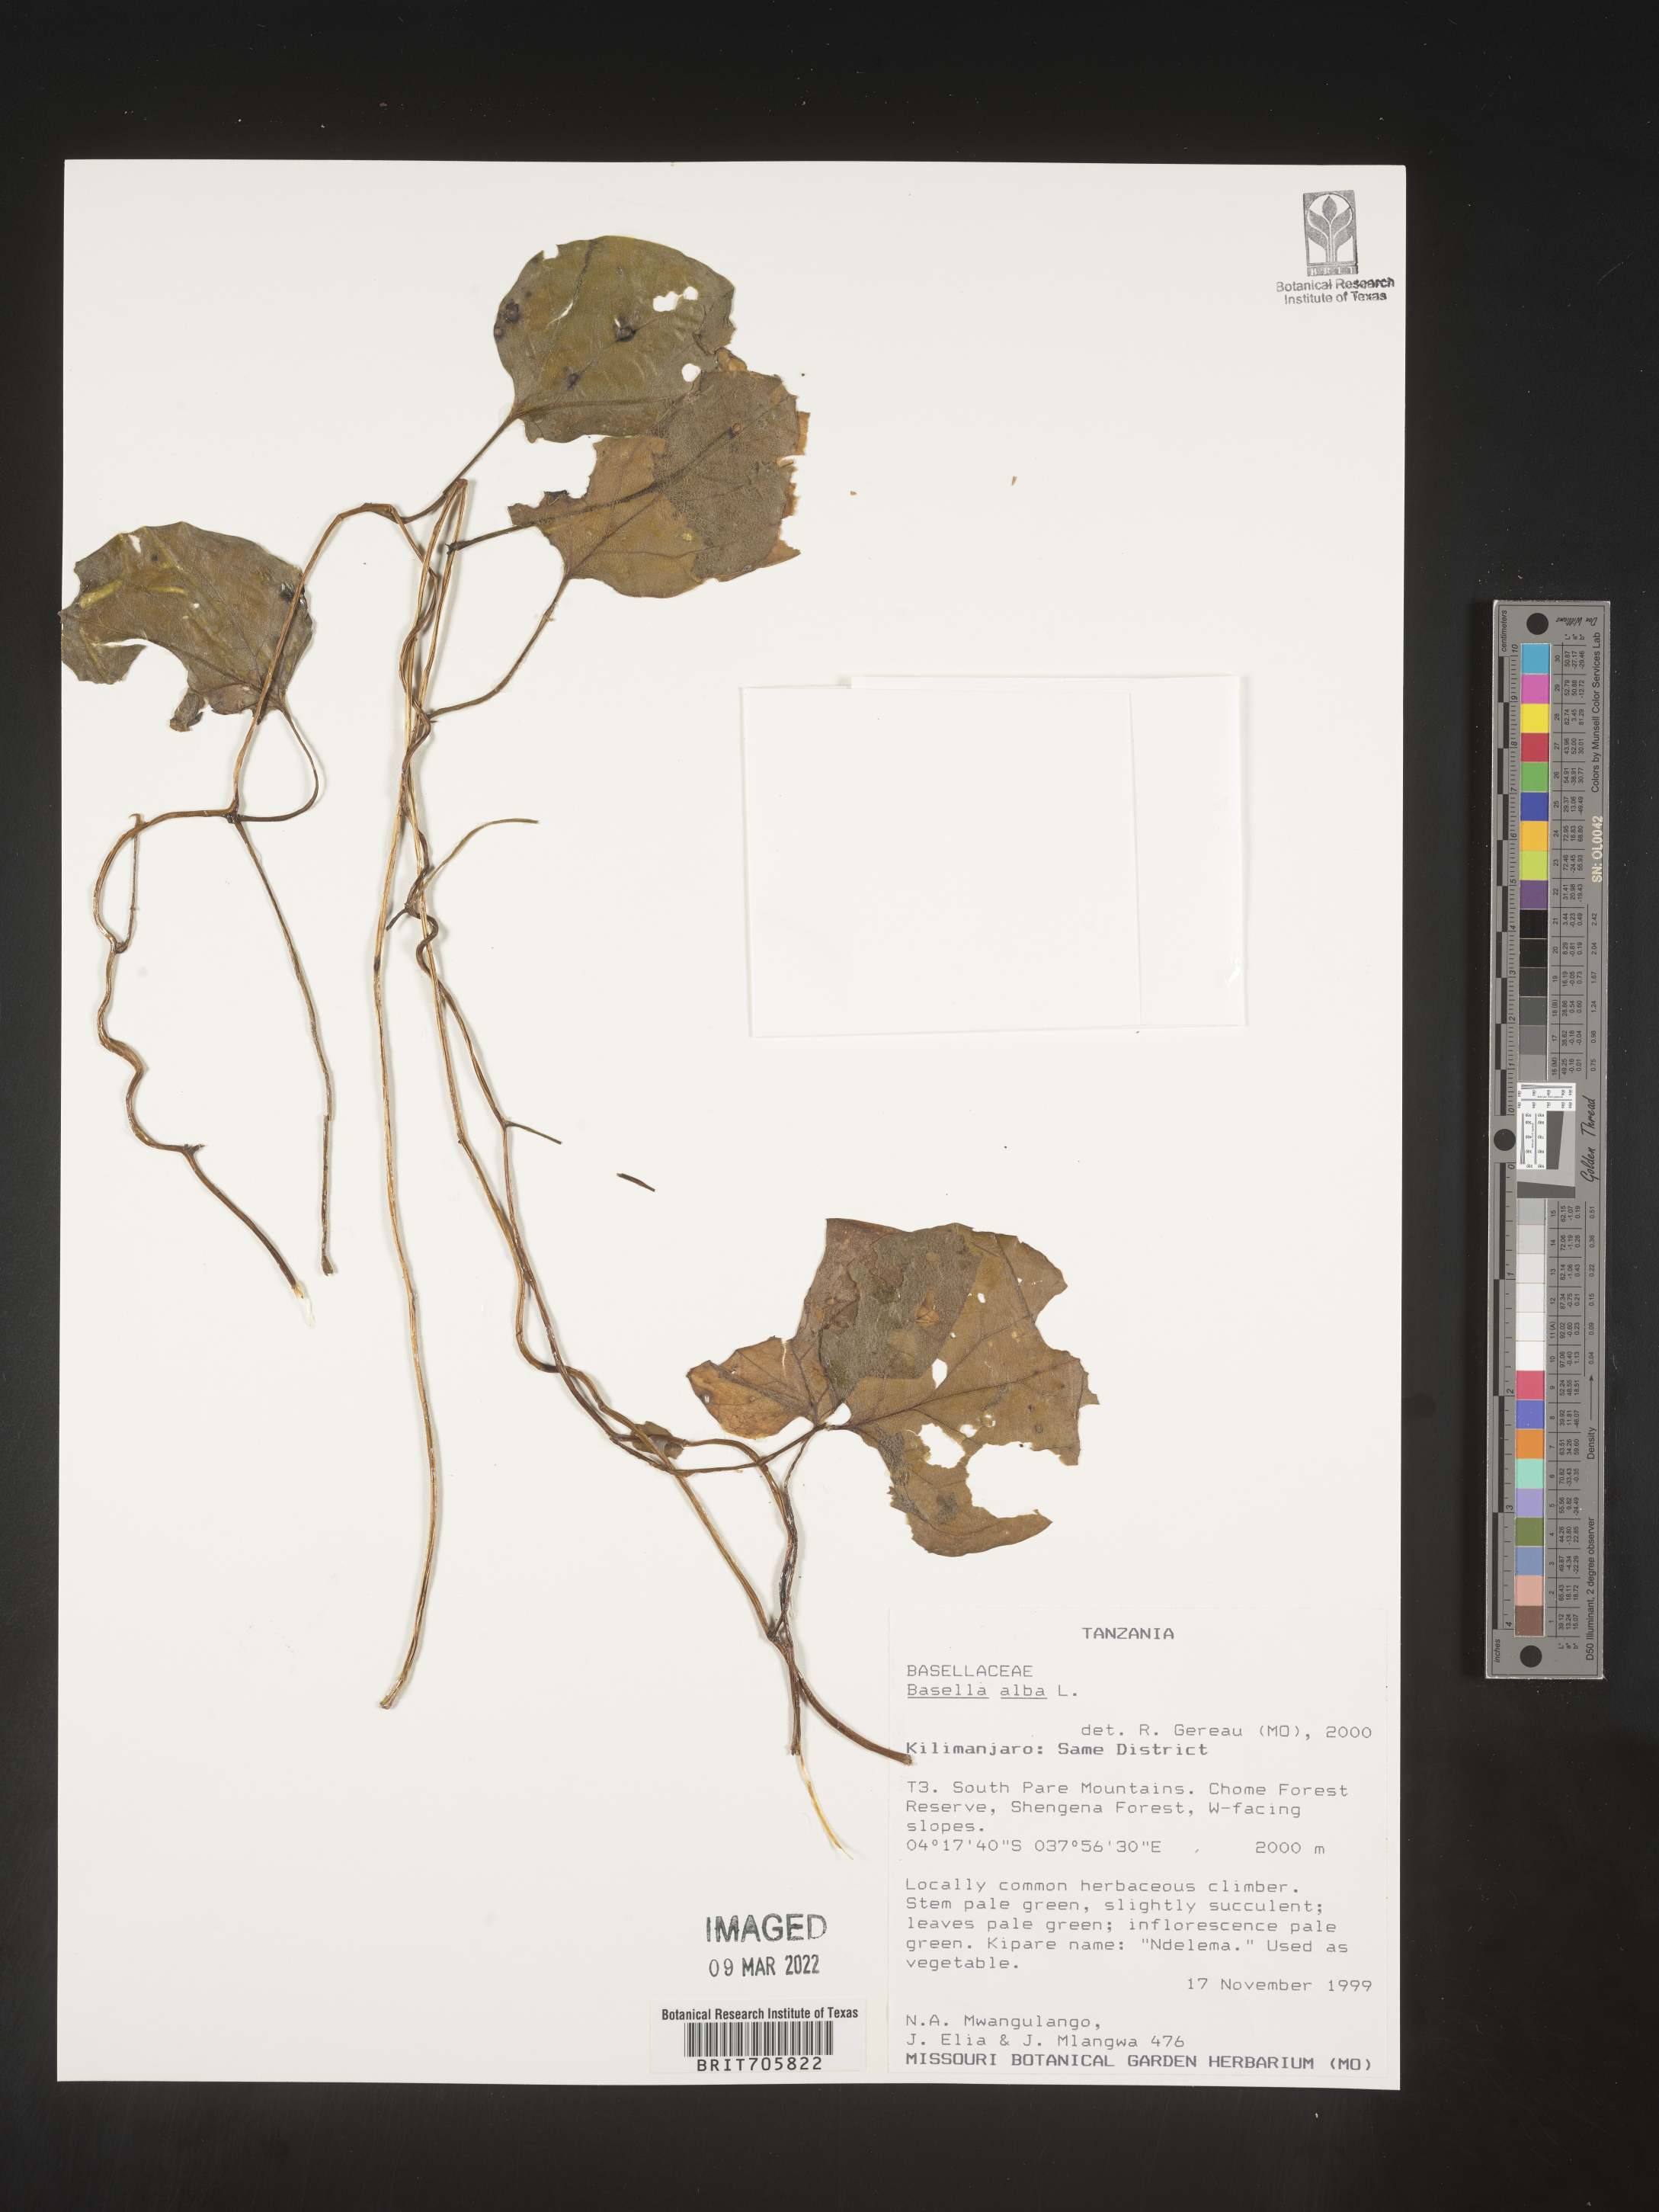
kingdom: Plantae
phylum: Tracheophyta
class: Magnoliopsida
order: Caryophyllales
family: Basellaceae
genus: Basella
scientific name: Basella
